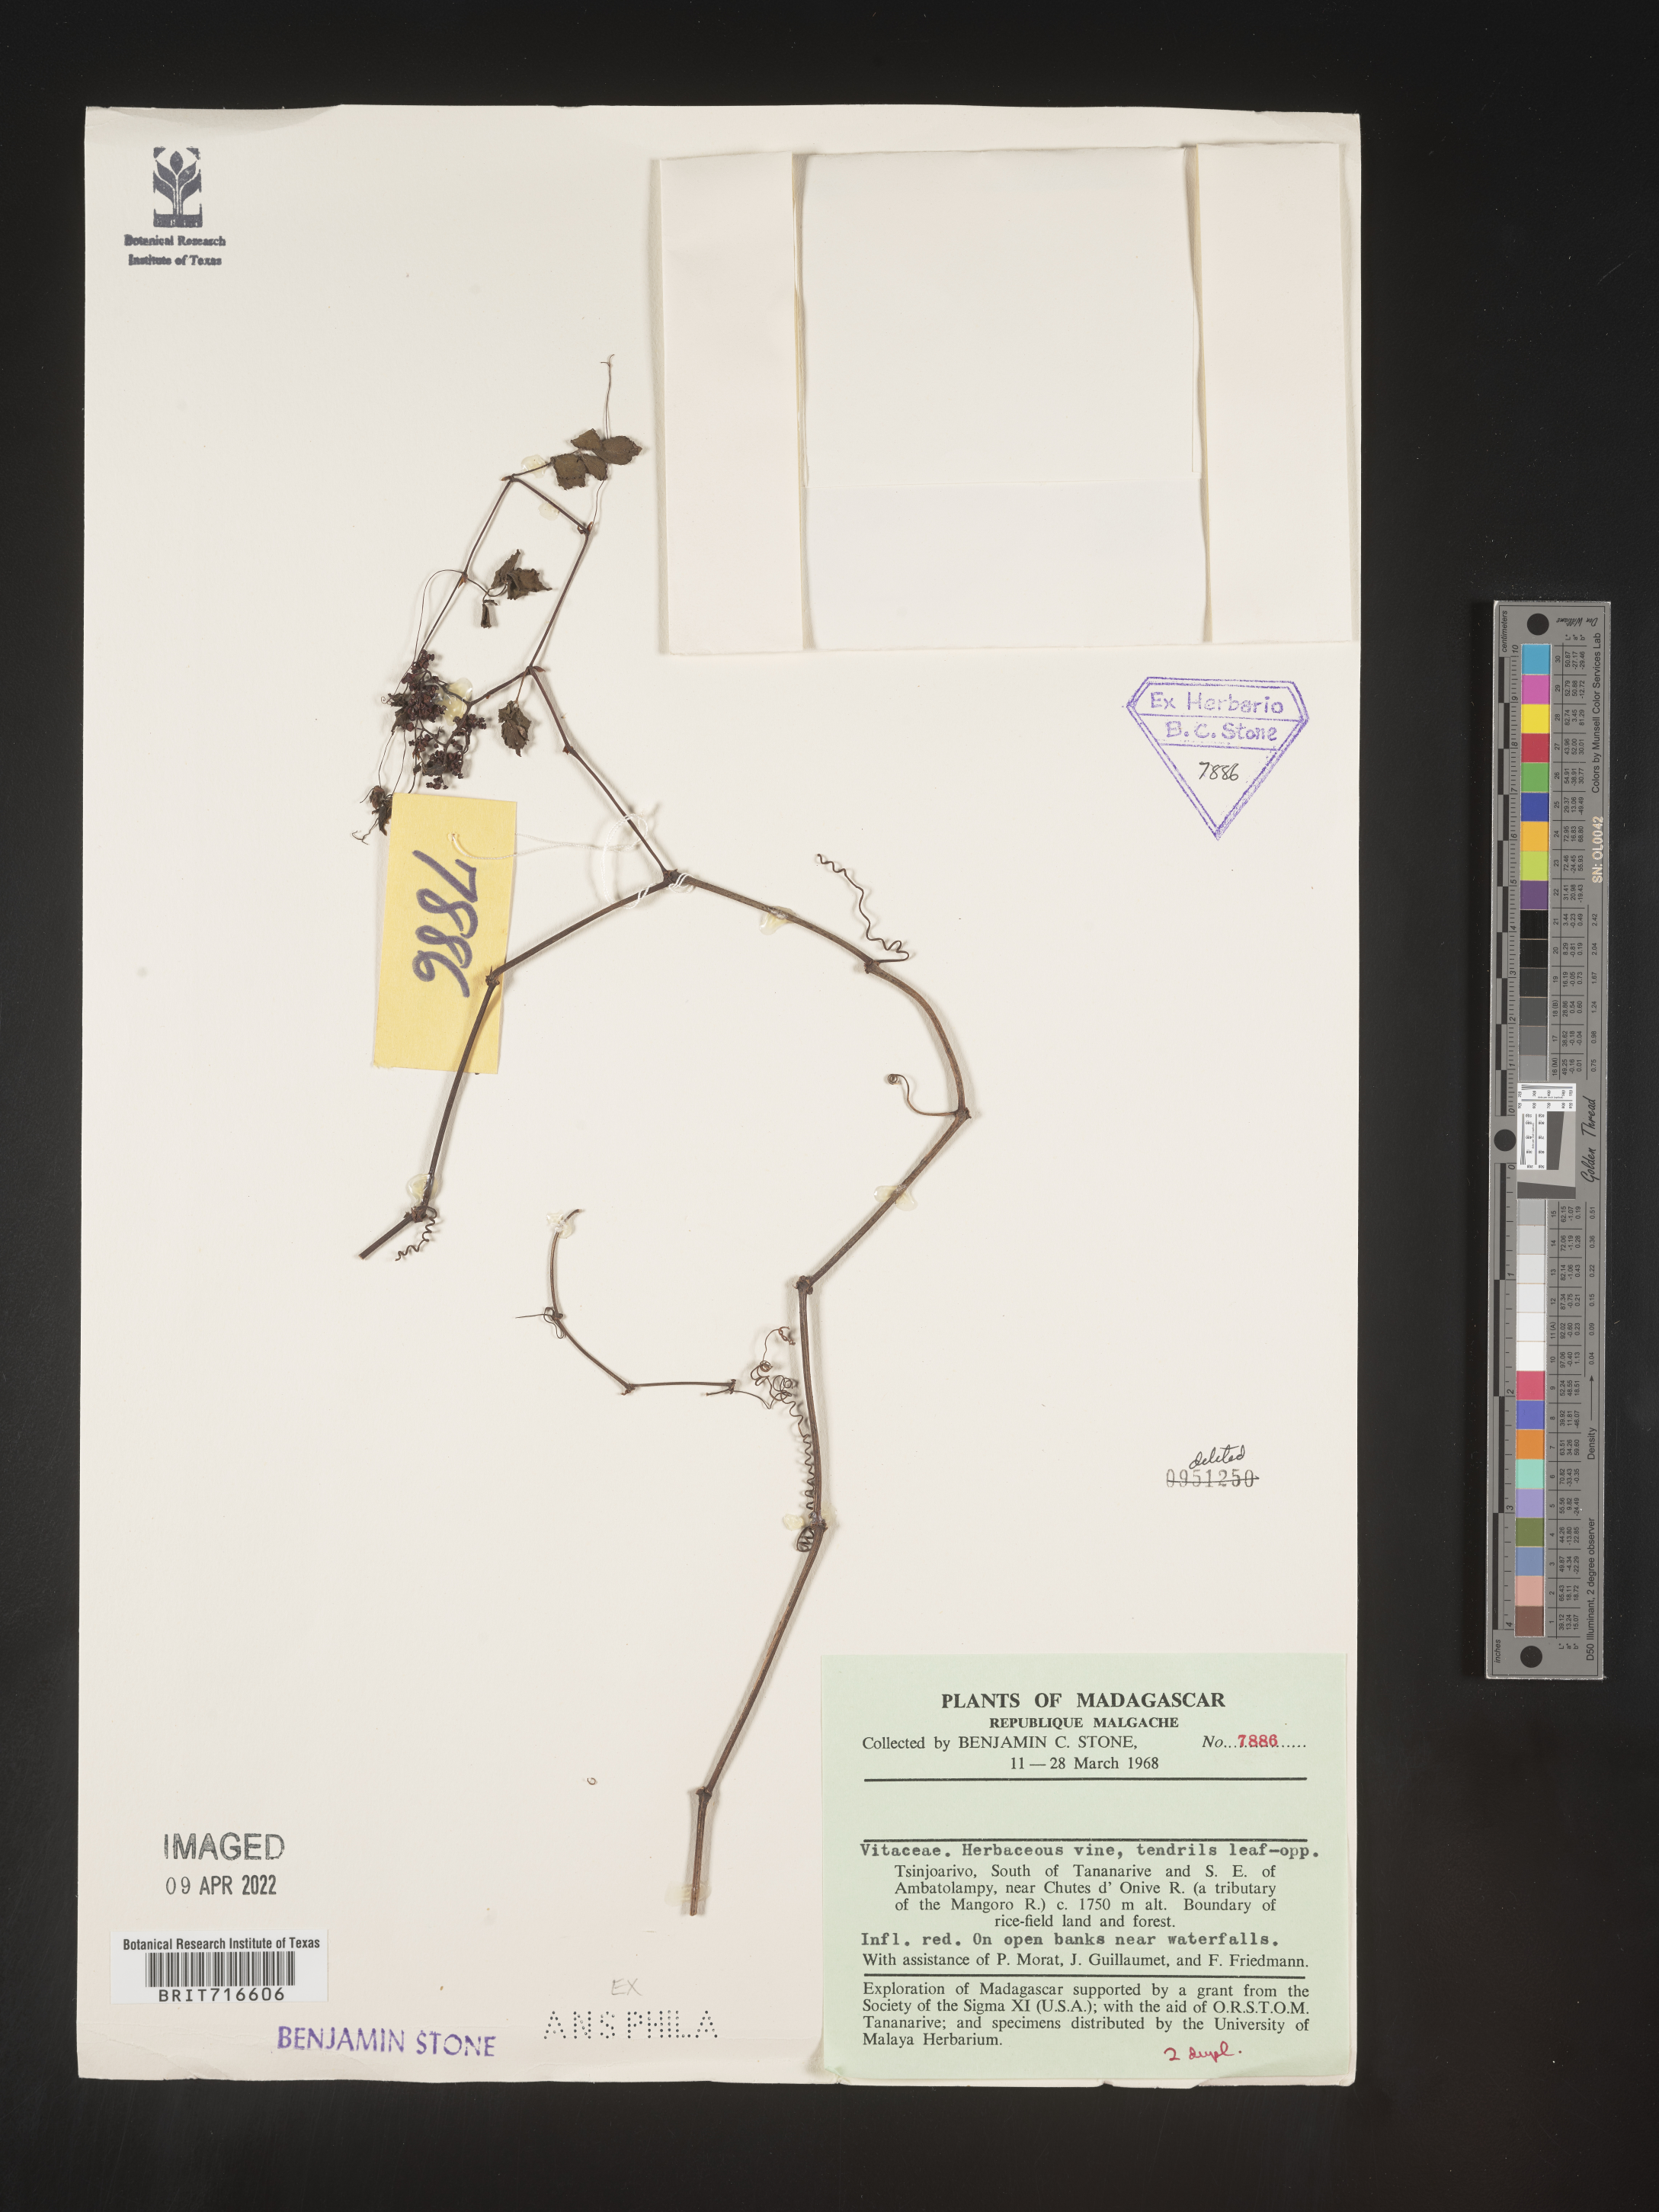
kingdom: Plantae
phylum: Tracheophyta
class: Magnoliopsida
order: Vitales
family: Vitaceae
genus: Vitis
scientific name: Vitis
